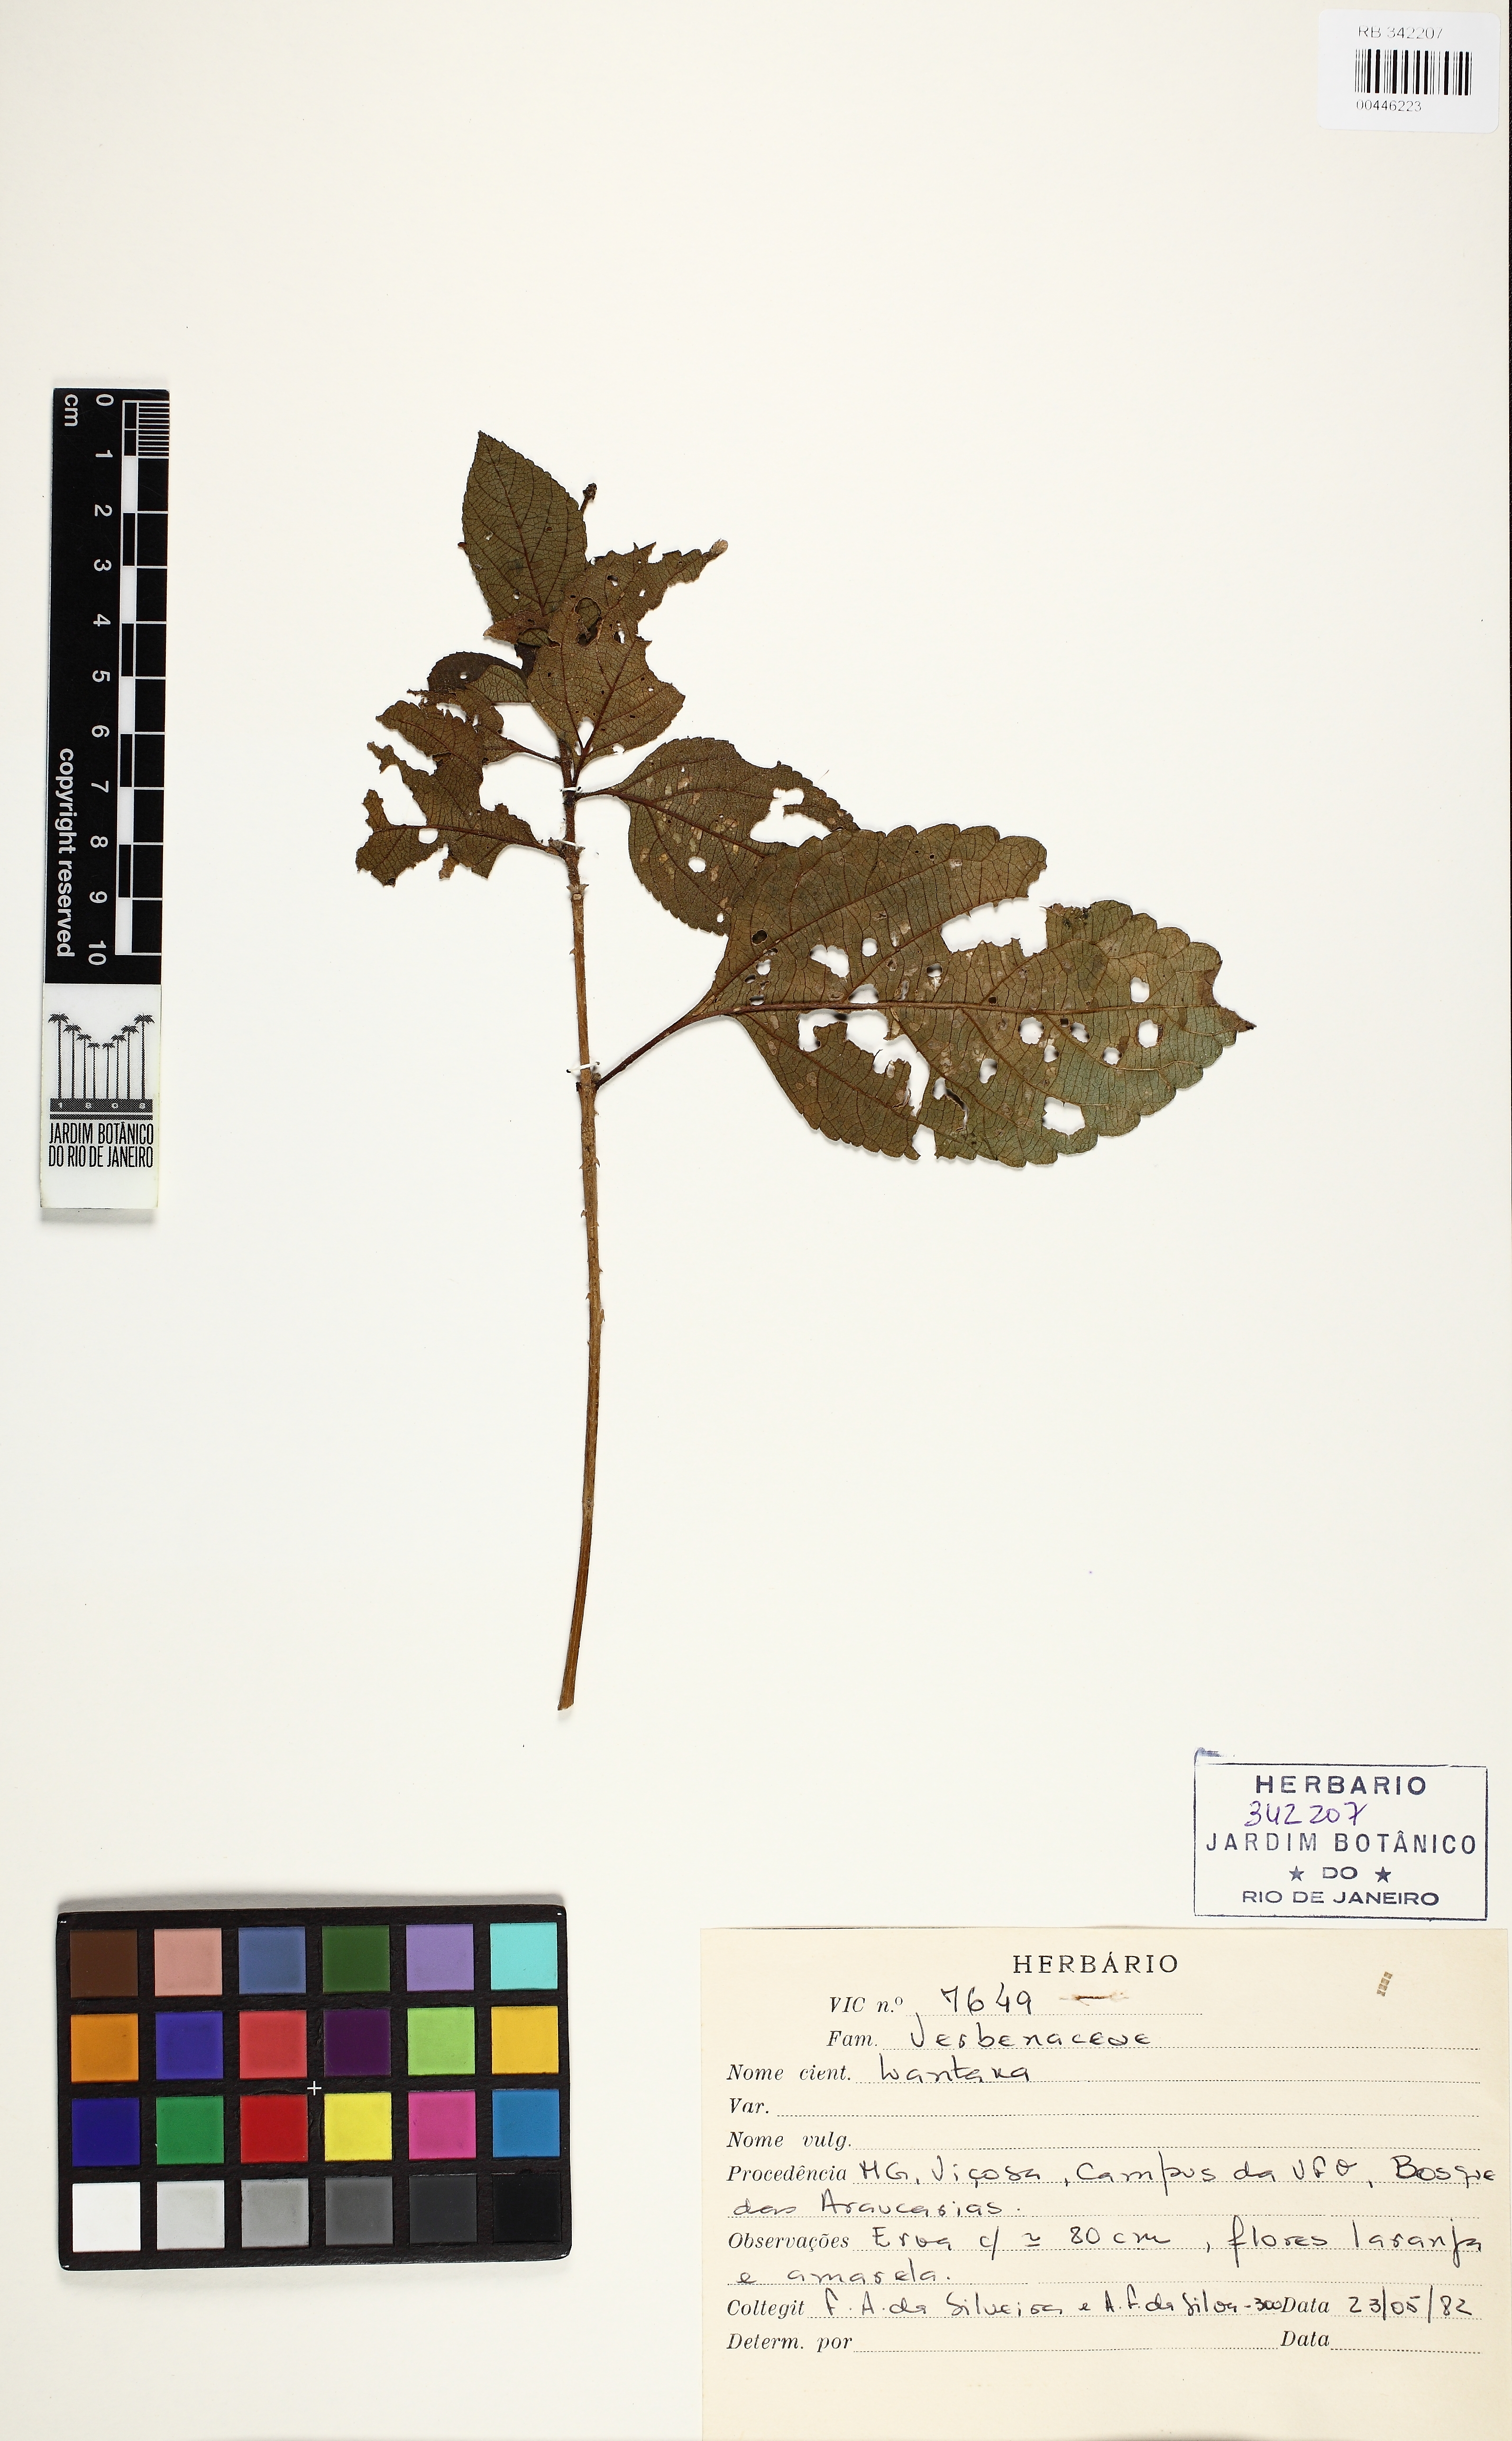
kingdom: Plantae
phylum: Tracheophyta
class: Magnoliopsida
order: Lamiales
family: Verbenaceae
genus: Lantana
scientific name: Lantana
